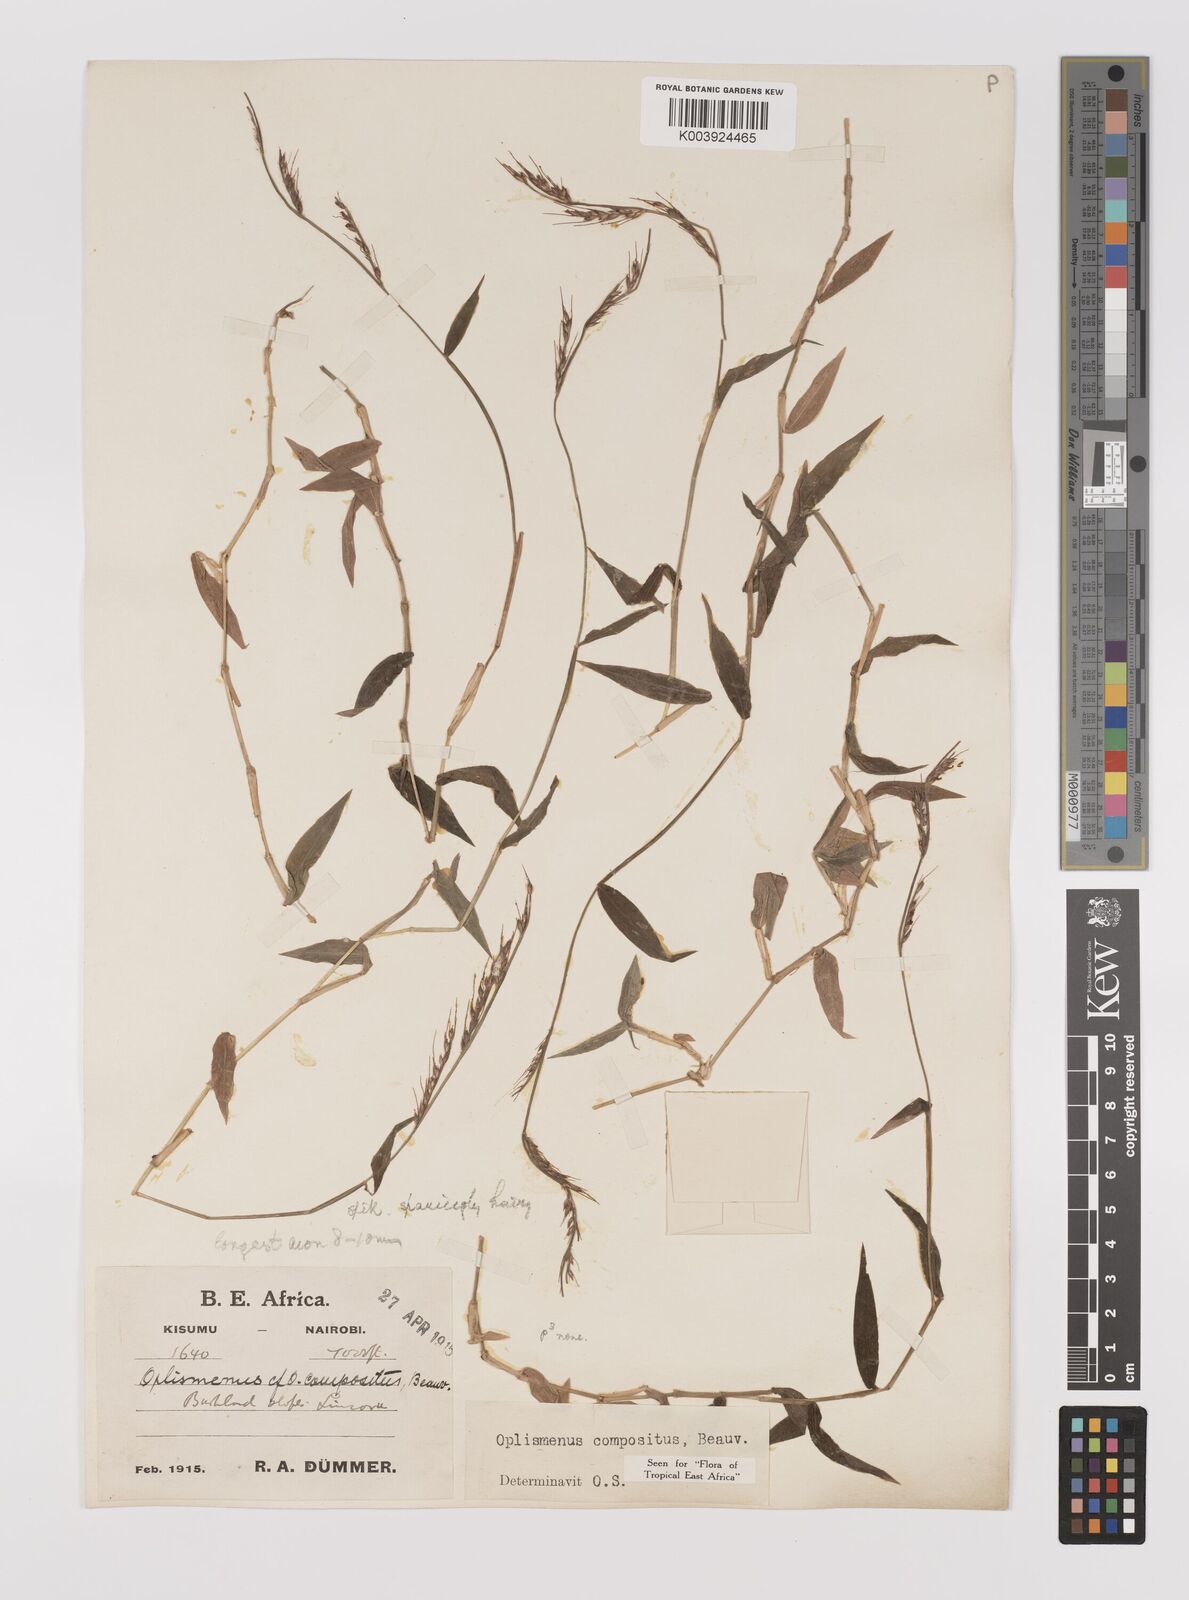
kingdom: Plantae
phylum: Tracheophyta
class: Liliopsida
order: Poales
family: Poaceae
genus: Oplismenus
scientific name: Oplismenus compositus
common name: Running mountain grass
